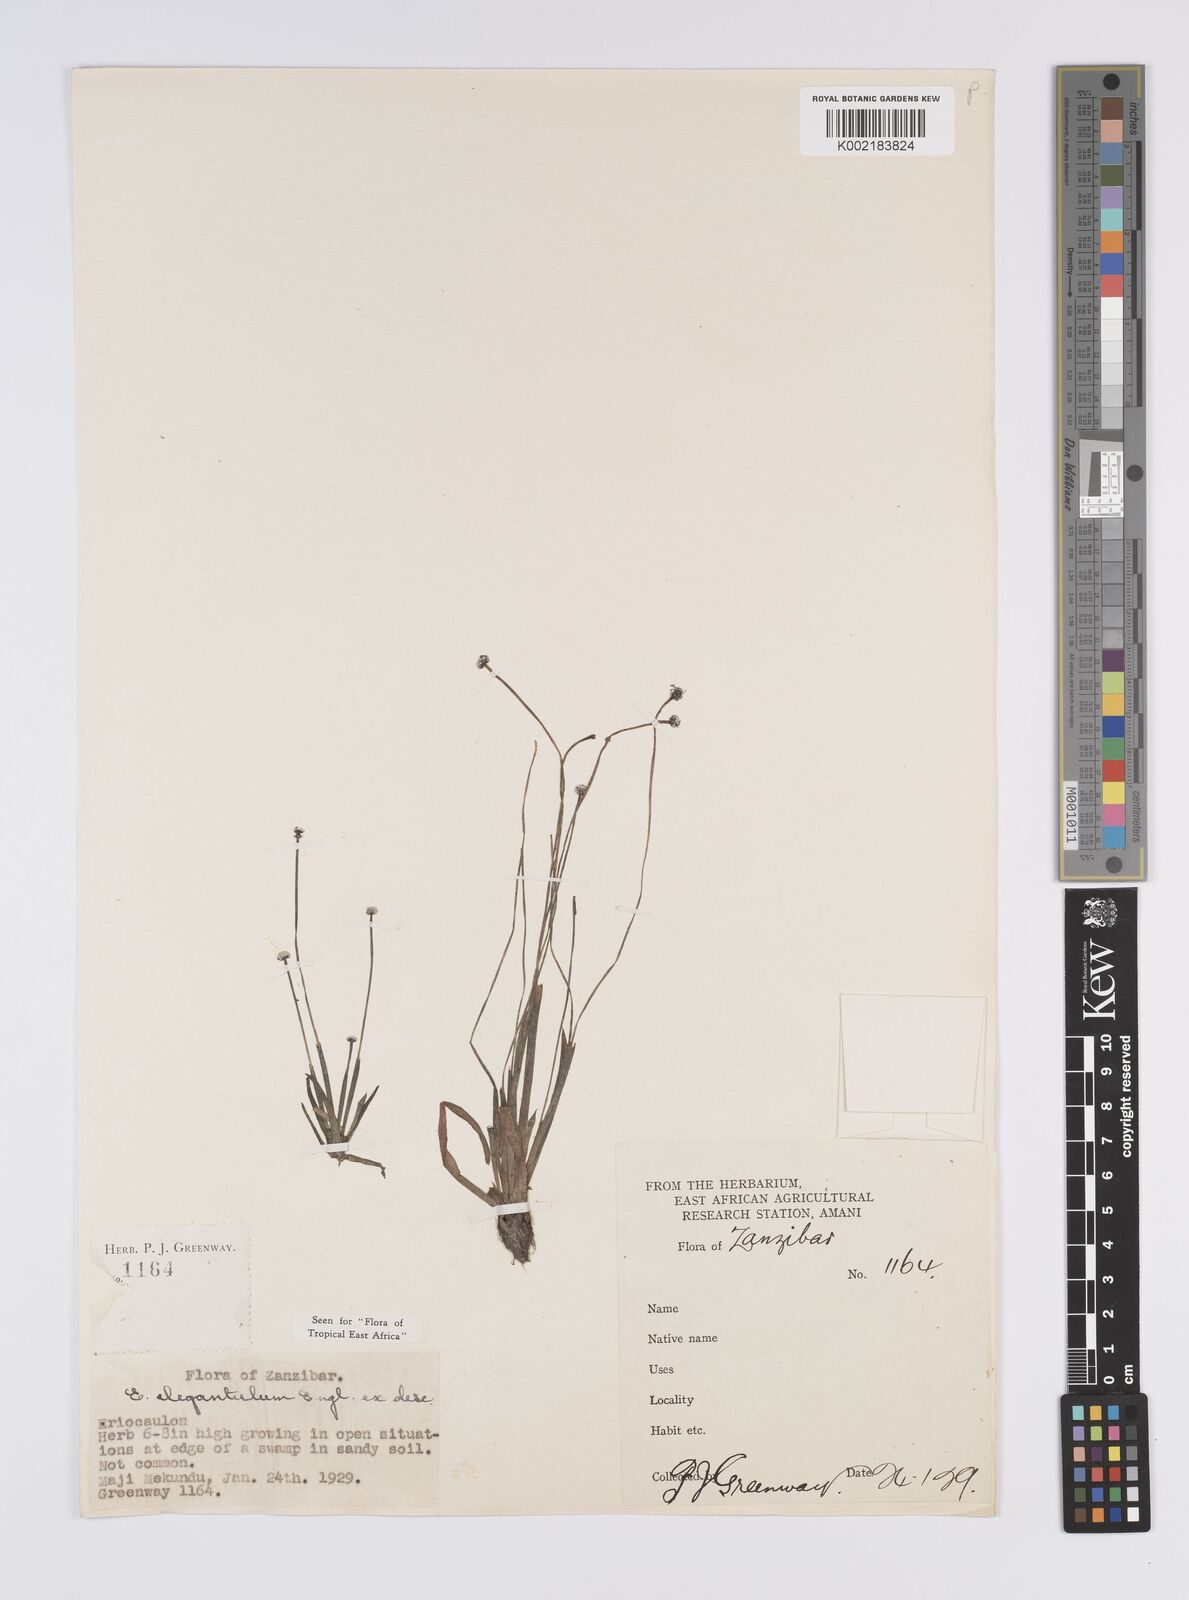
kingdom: Plantae
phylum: Tracheophyta
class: Liliopsida
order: Poales
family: Eriocaulaceae
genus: Eriocaulon
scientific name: Eriocaulon elegantulum
